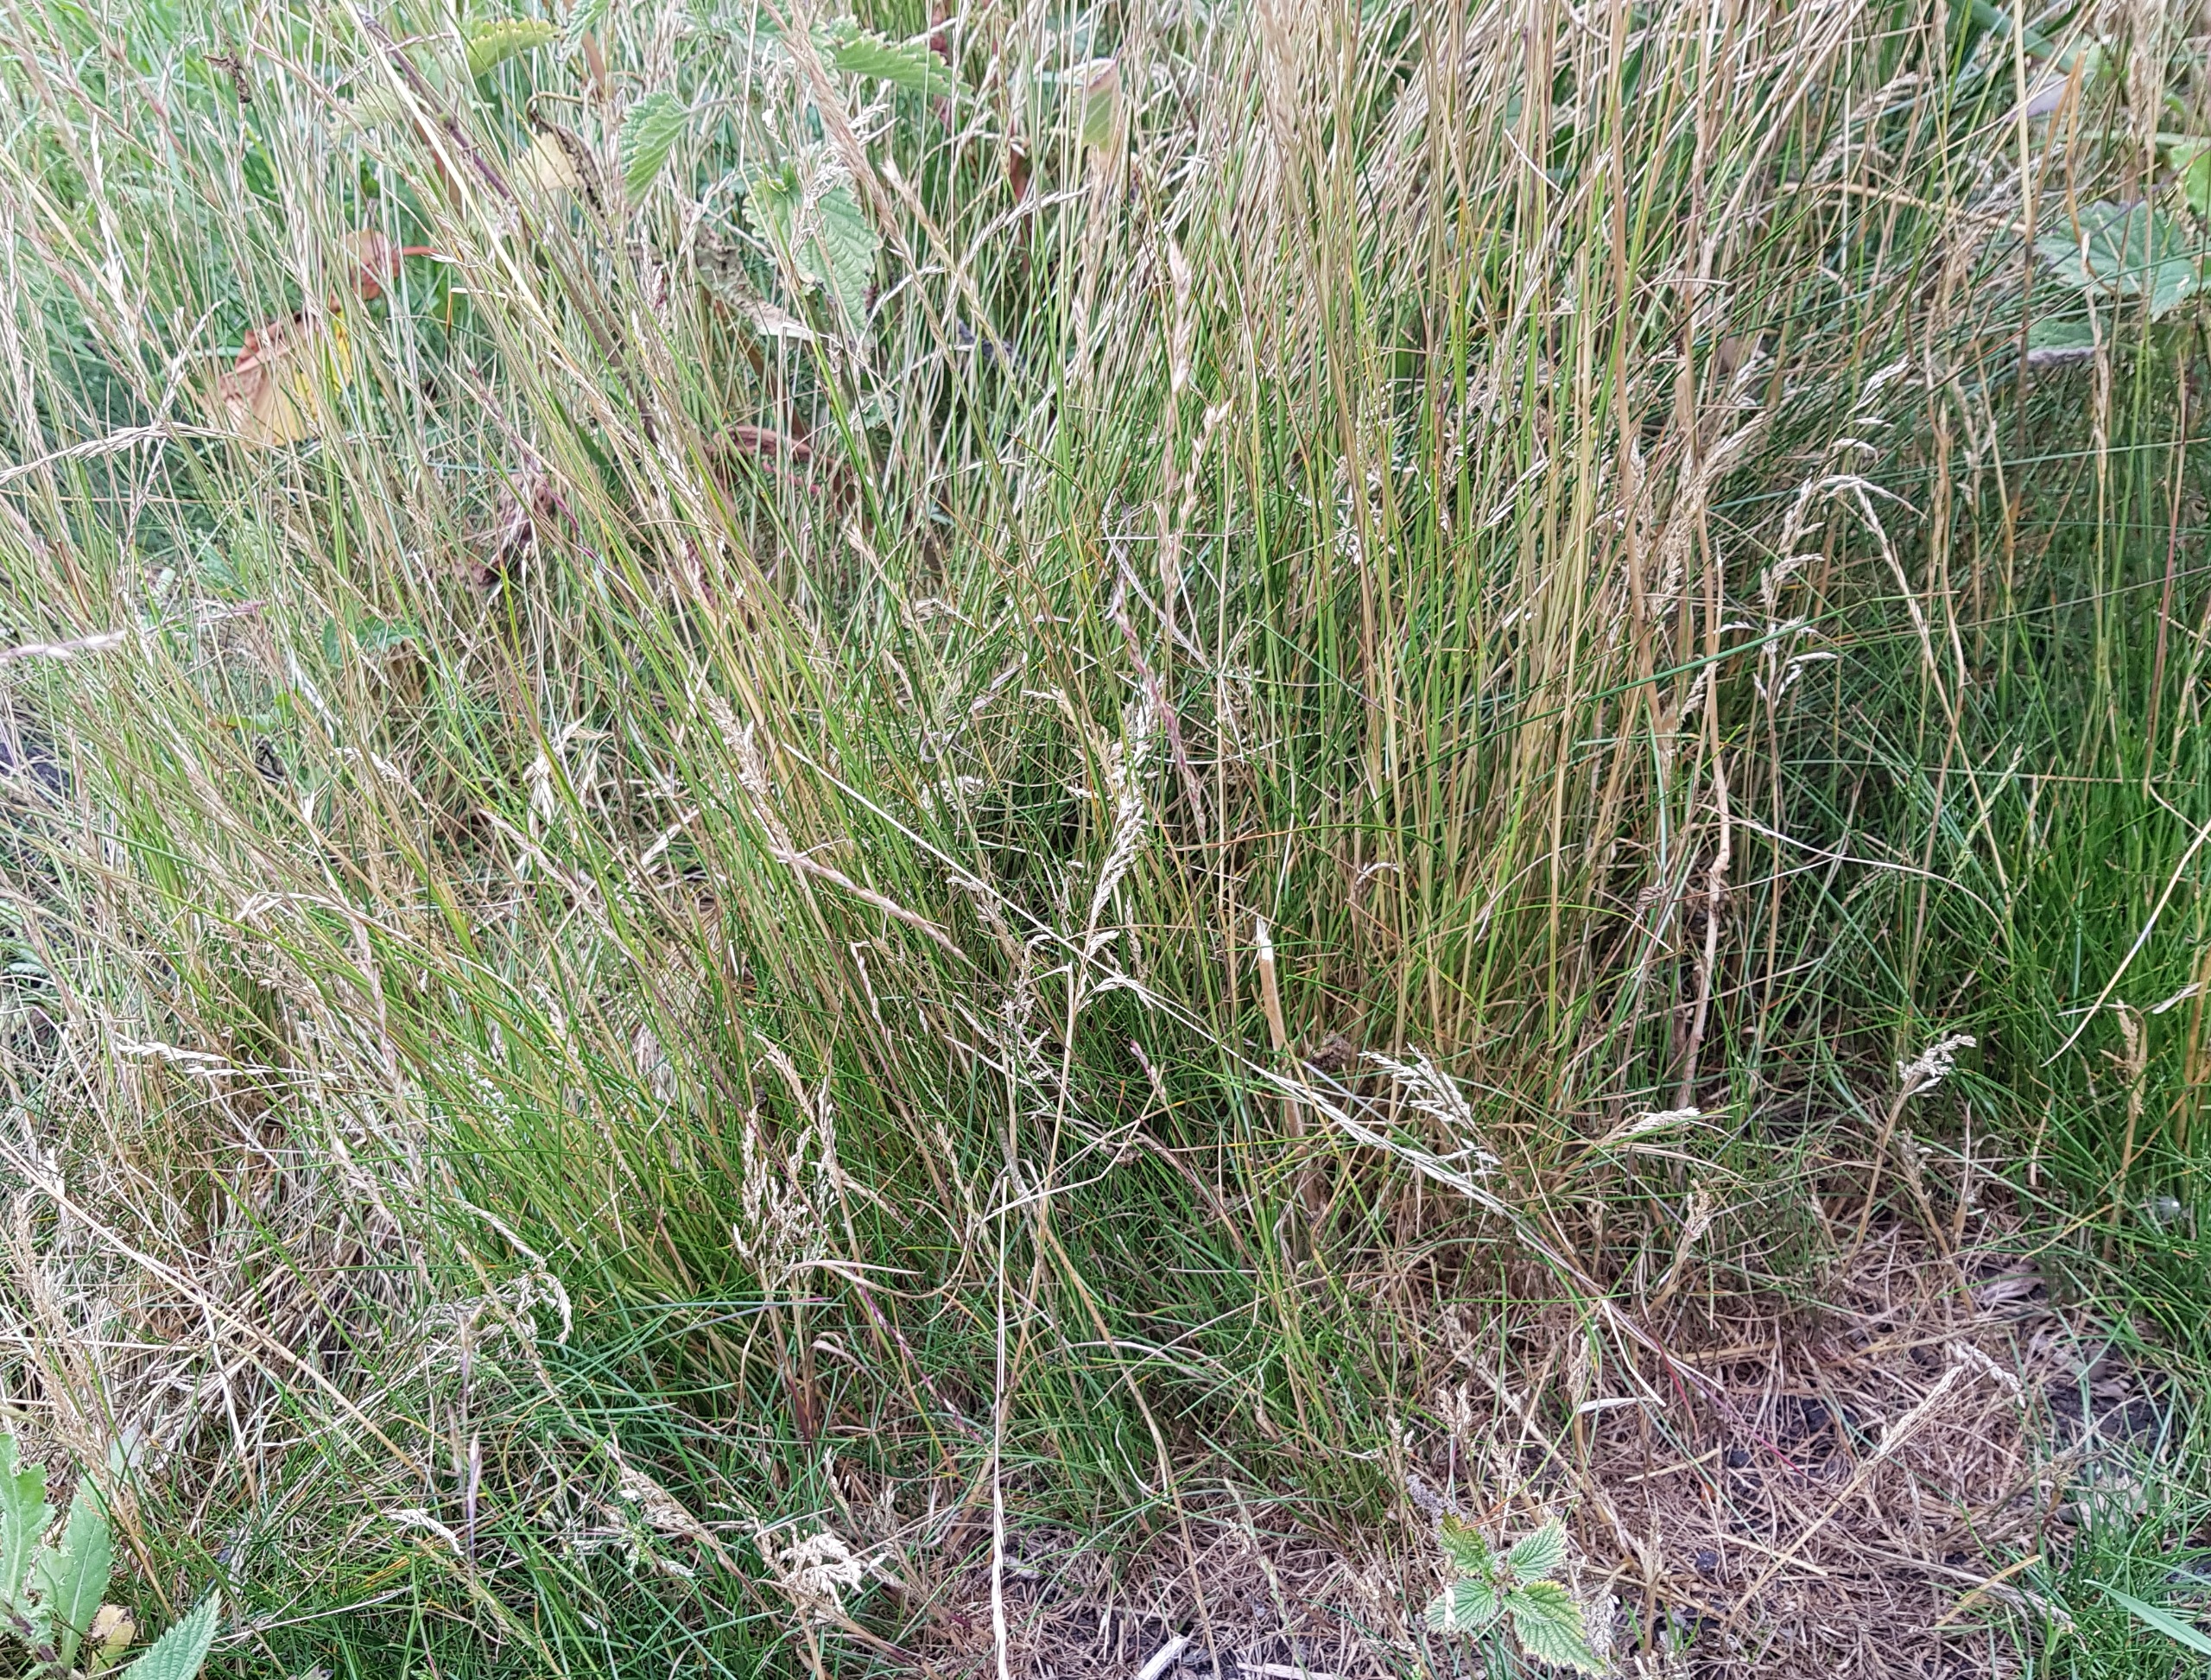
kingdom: Plantae
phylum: Tracheophyta
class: Liliopsida
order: Poales
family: Poaceae
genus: Festuca
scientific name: Festuca nigrescens
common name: Vej-svingel
